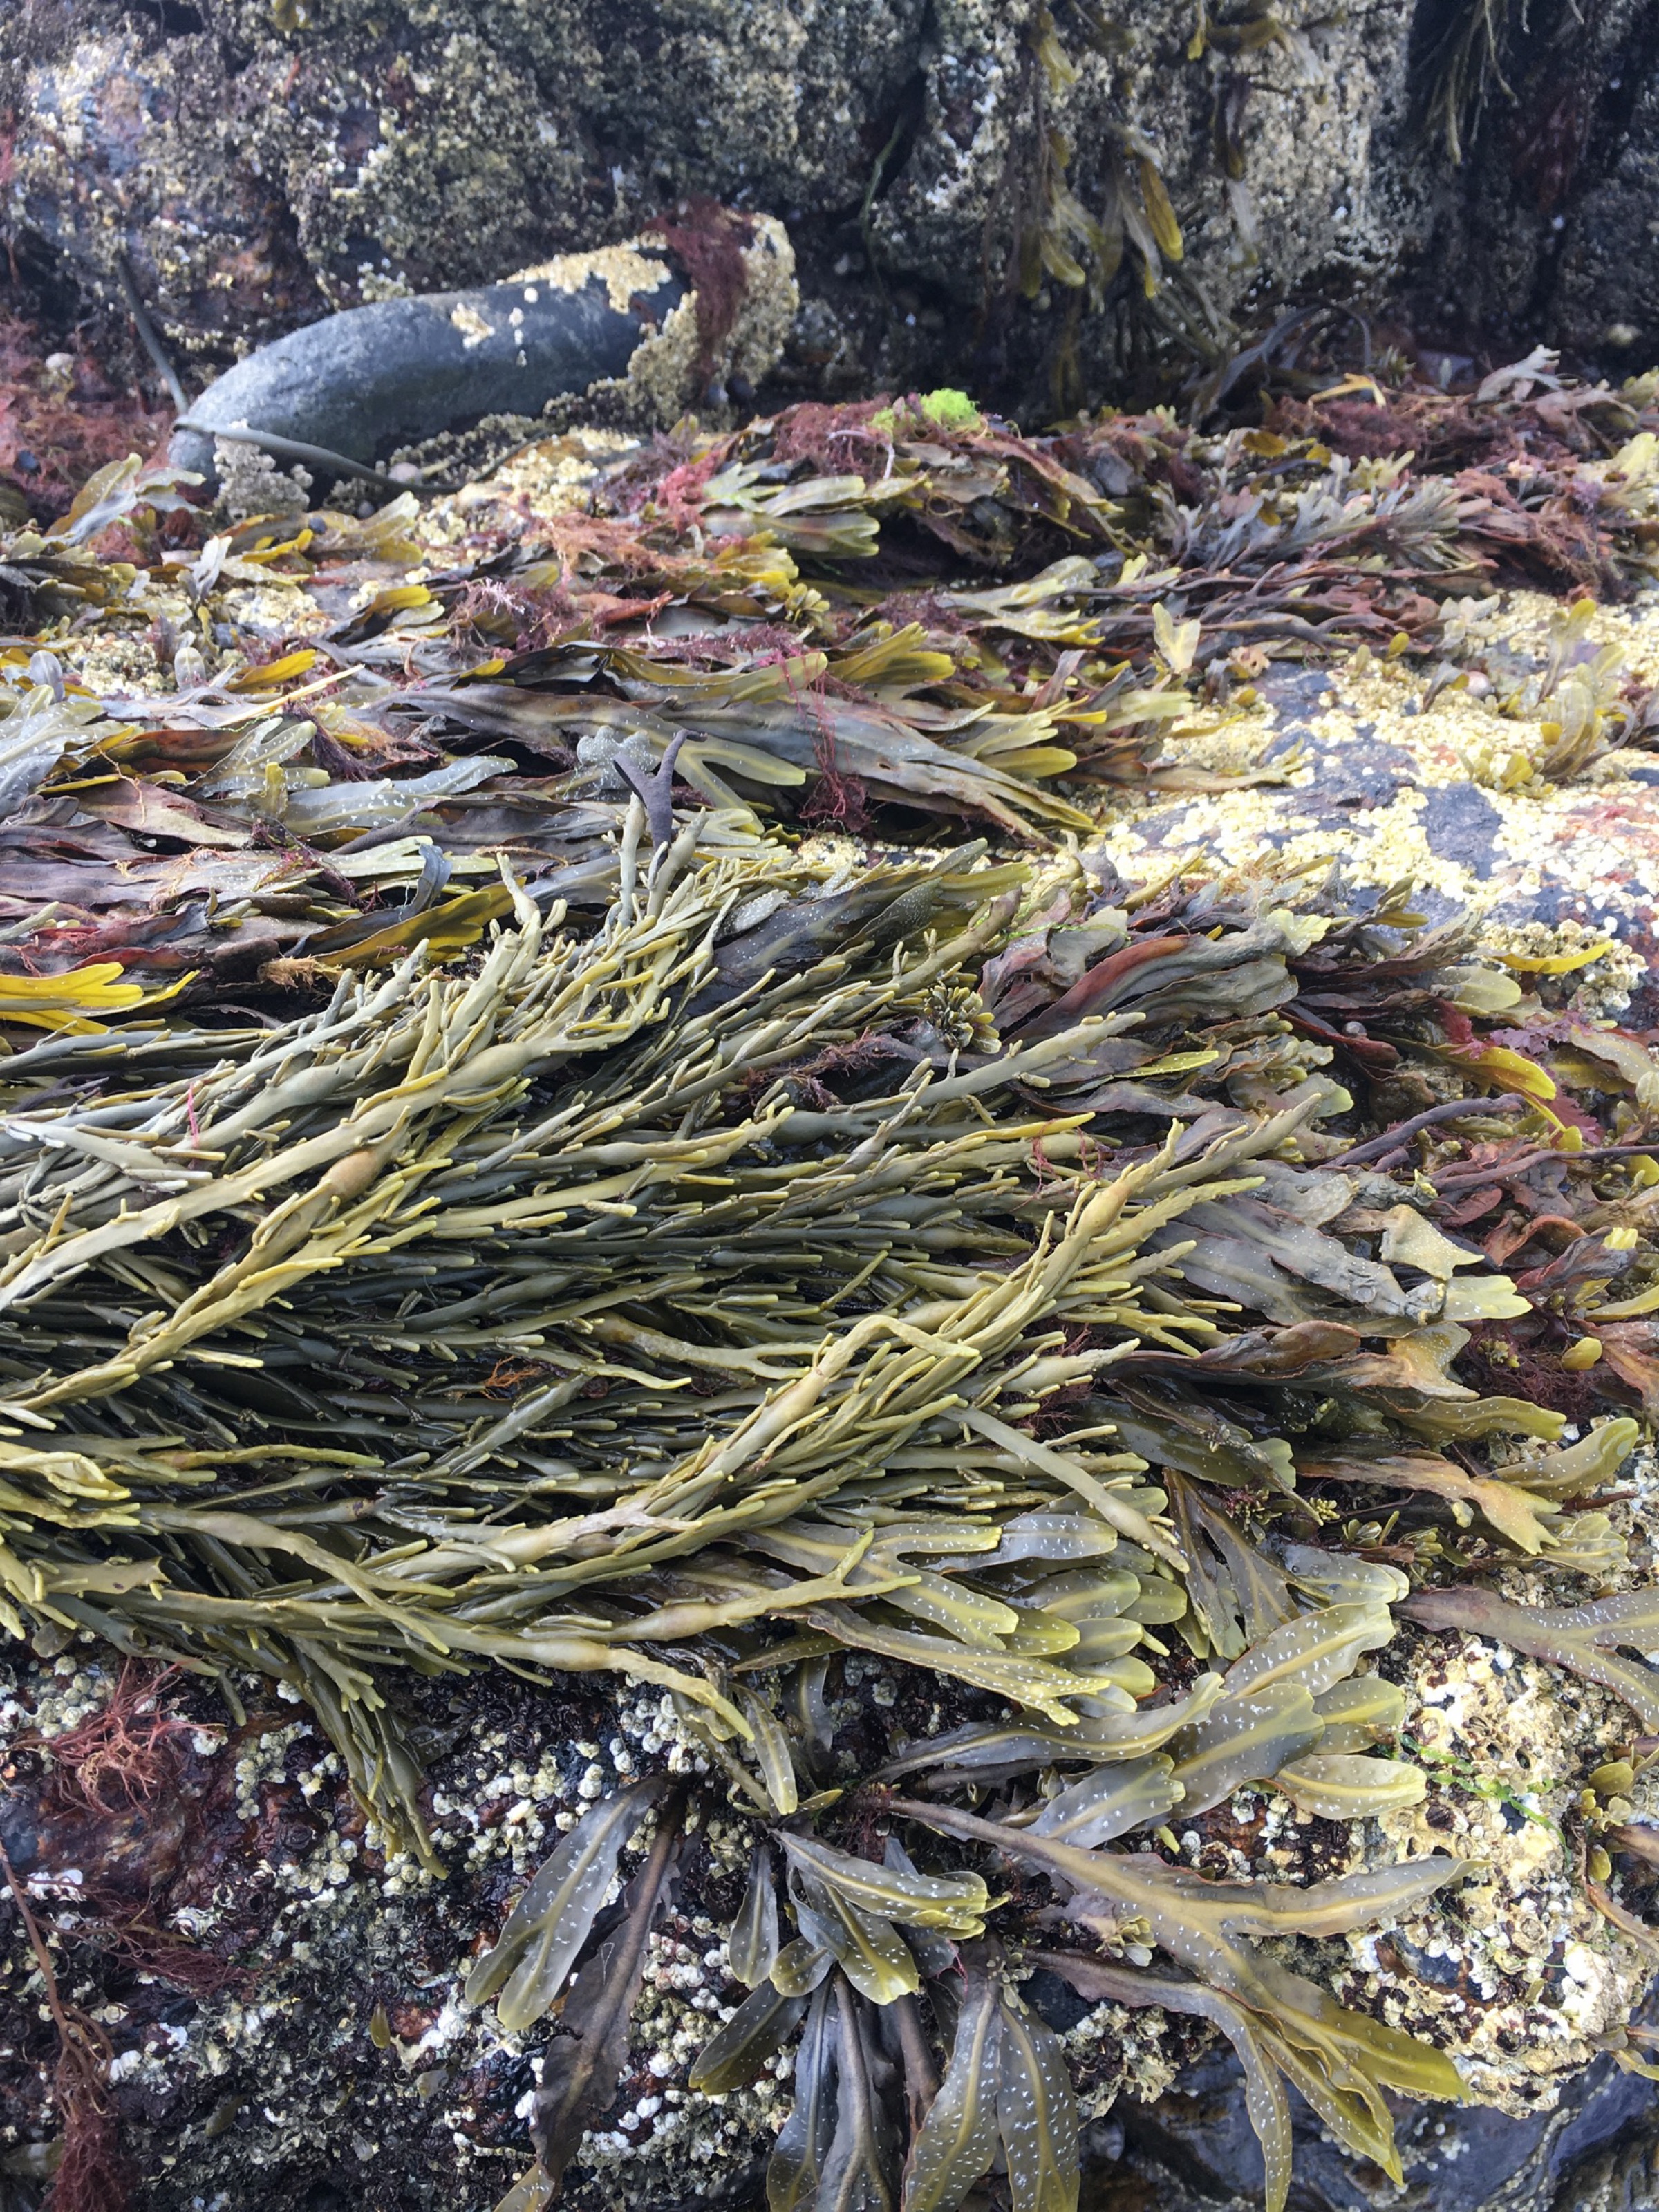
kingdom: Chromista
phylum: Ochrophyta
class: Phaeophyceae
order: Fucales
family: Fucaceae
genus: Ascophyllum
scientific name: Ascophyllum nodosum
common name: Rockweed
